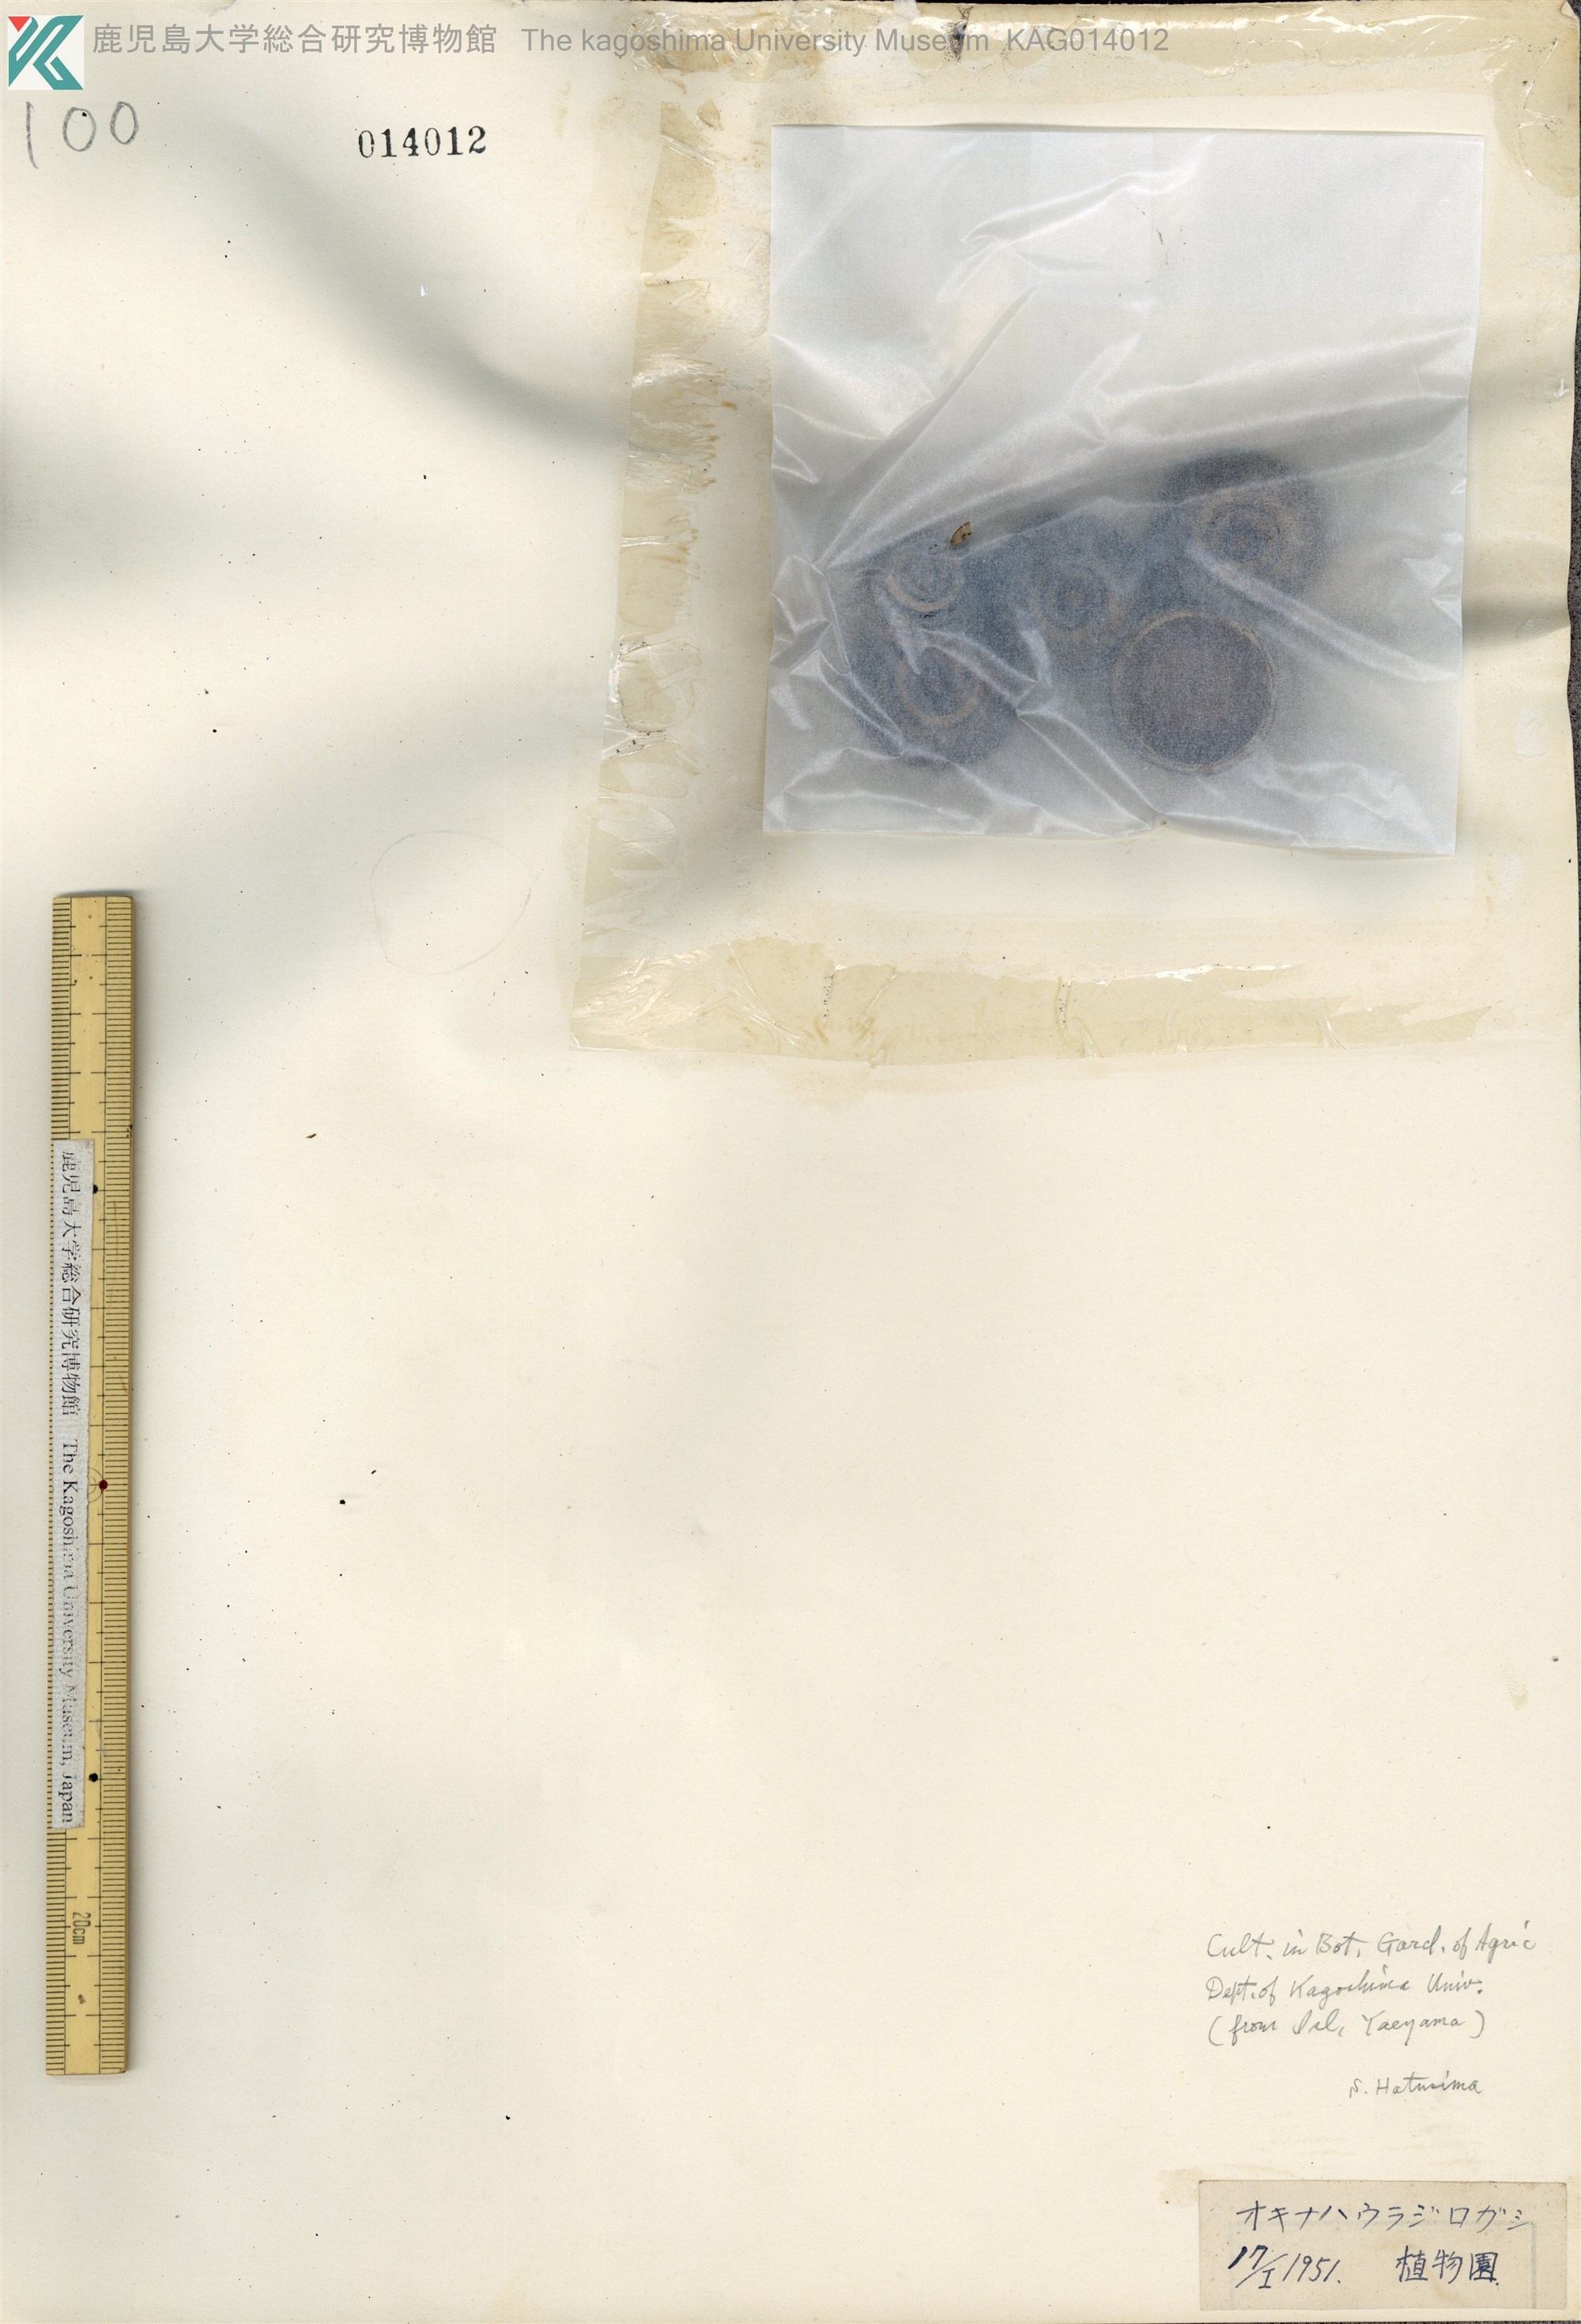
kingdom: Plantae
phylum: Tracheophyta
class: Magnoliopsida
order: Fagales
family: Fagaceae
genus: Quercus
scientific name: Quercus miyagii
